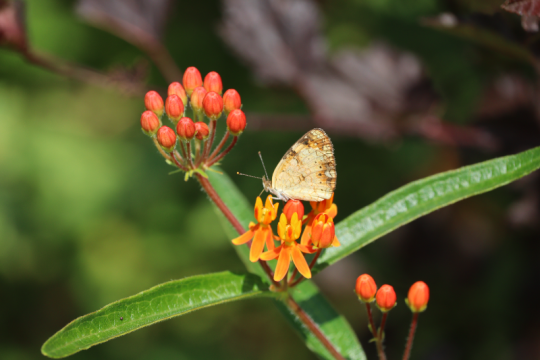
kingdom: Animalia
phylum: Arthropoda
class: Insecta
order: Lepidoptera
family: Nymphalidae
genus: Phyciodes
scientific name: Phyciodes
